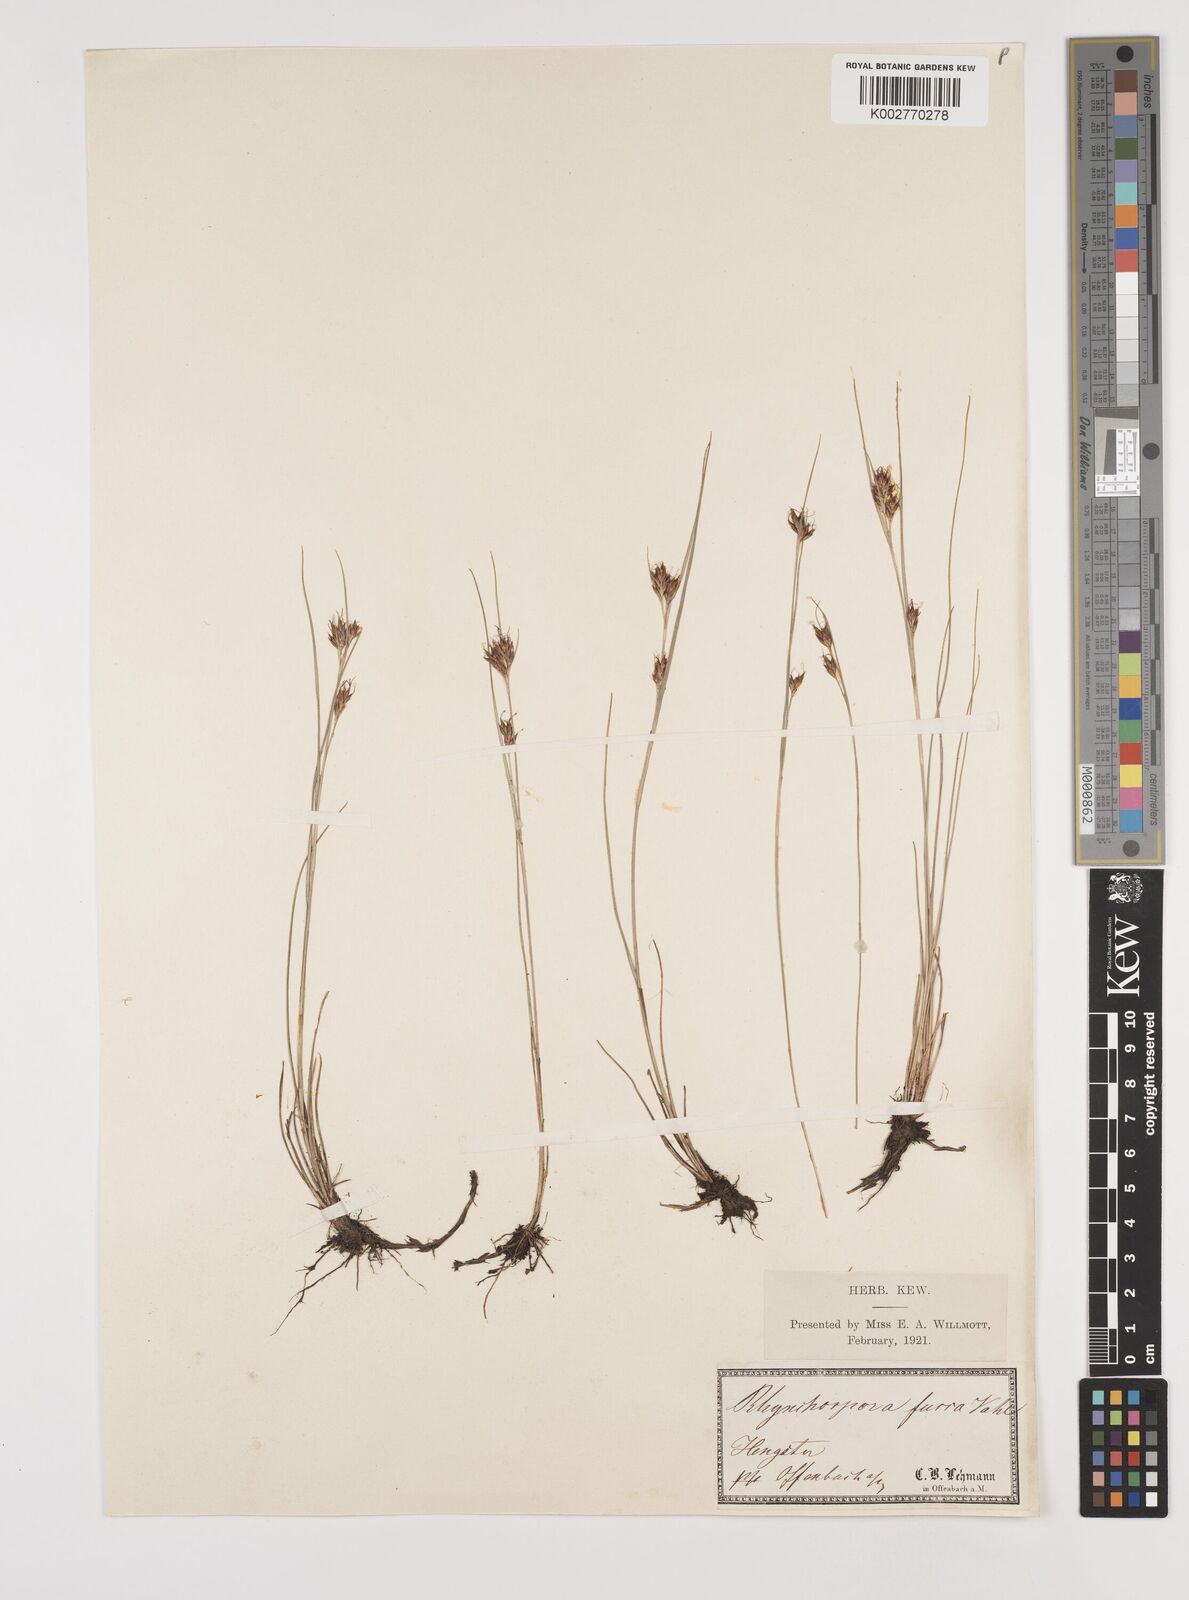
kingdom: Plantae
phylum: Tracheophyta
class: Liliopsida
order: Poales
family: Cyperaceae
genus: Rhynchospora
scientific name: Rhynchospora fusca
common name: Brown beak-sedge
